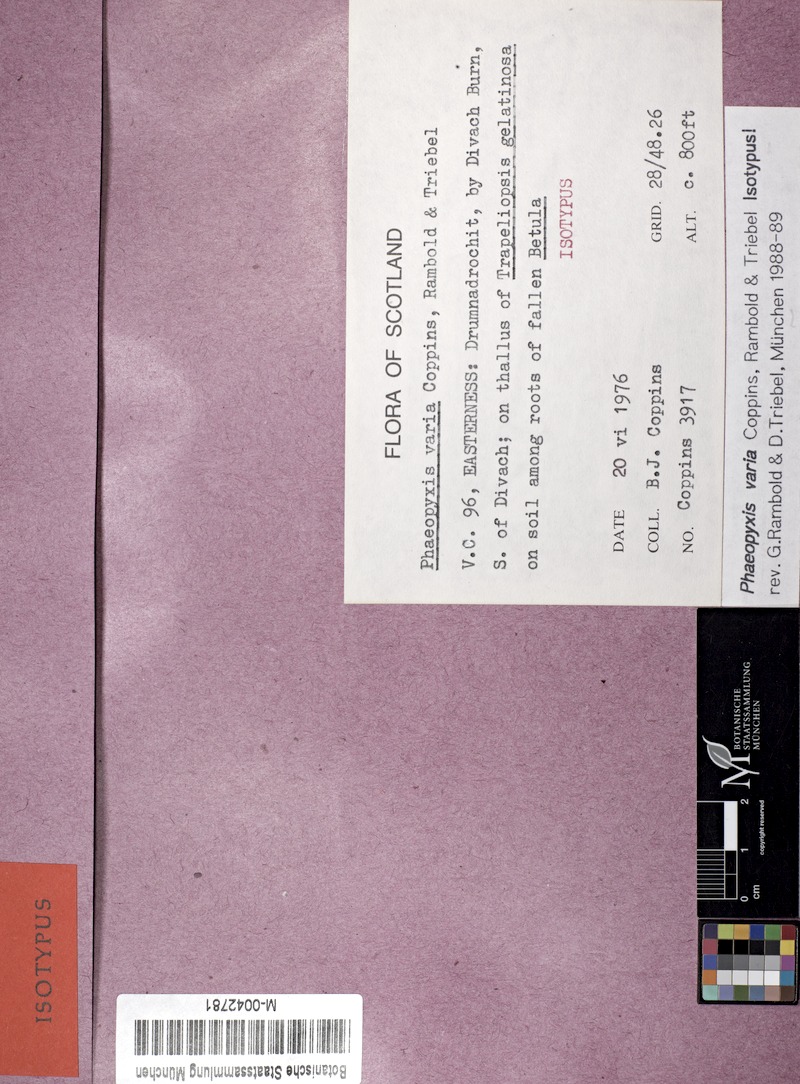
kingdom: Fungi
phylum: Ascomycota
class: Lecanoromycetes
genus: Bachmanniomyces
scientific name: Bachmanniomyces varius
